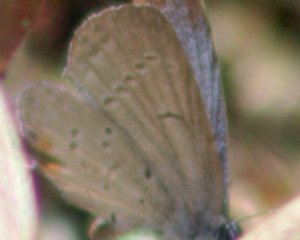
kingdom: Animalia
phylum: Arthropoda
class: Insecta
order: Lepidoptera
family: Lycaenidae
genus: Elkalyce
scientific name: Elkalyce comyntas
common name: Eastern Tailed-Blue
